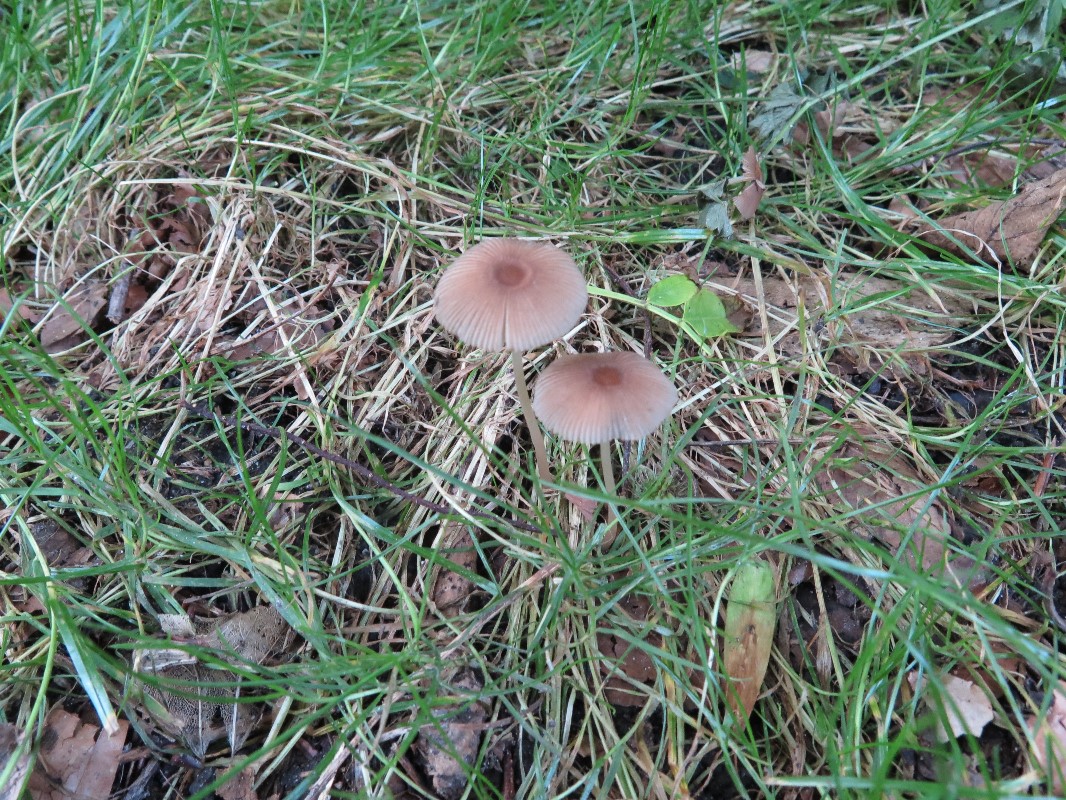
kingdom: Fungi
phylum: Basidiomycota
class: Agaricomycetes
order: Agaricales
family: Psathyrellaceae
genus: Parasola
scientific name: Parasola auricoma
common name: hansens hjulhat
